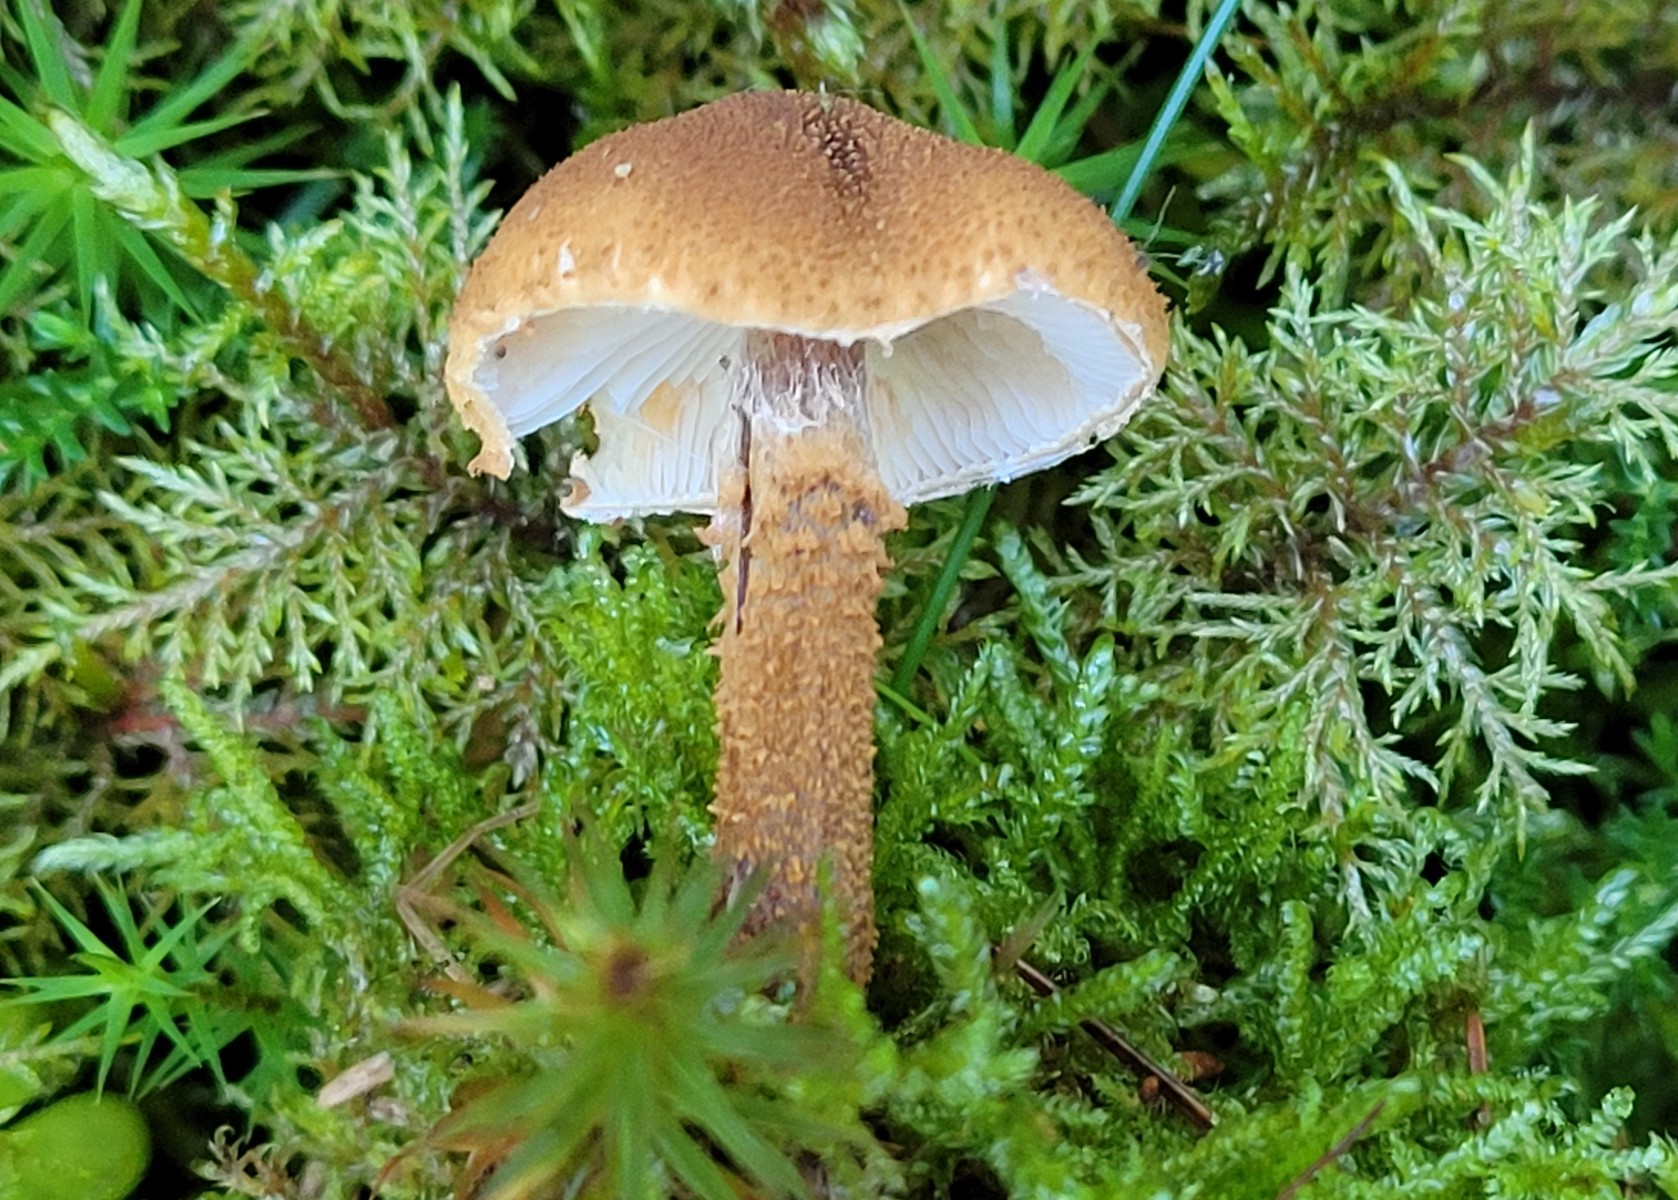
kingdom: Fungi
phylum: Basidiomycota
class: Agaricomycetes
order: Agaricales
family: Tricholomataceae
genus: Cystoderma
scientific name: Cystoderma amianthinum
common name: okkergul grynhat
